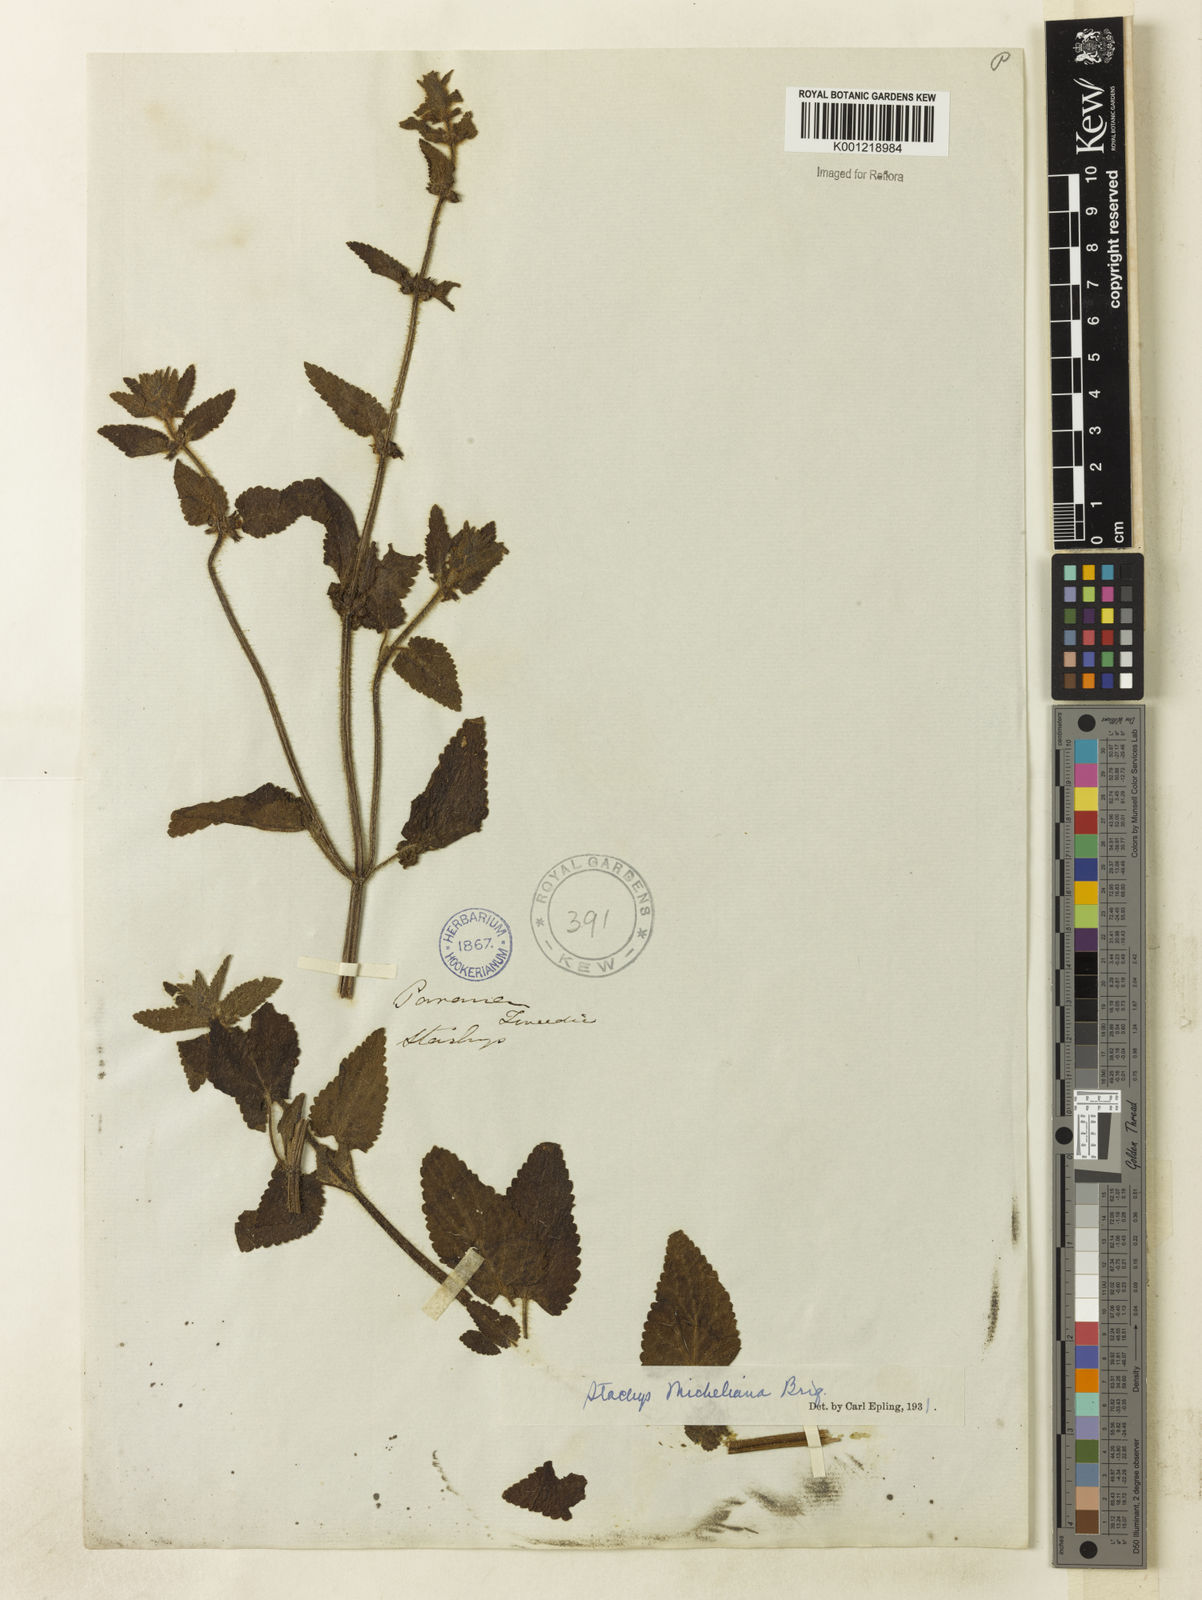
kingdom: Plantae
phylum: Tracheophyta
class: Magnoliopsida
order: Lamiales
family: Lamiaceae
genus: Stachys
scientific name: Stachys
